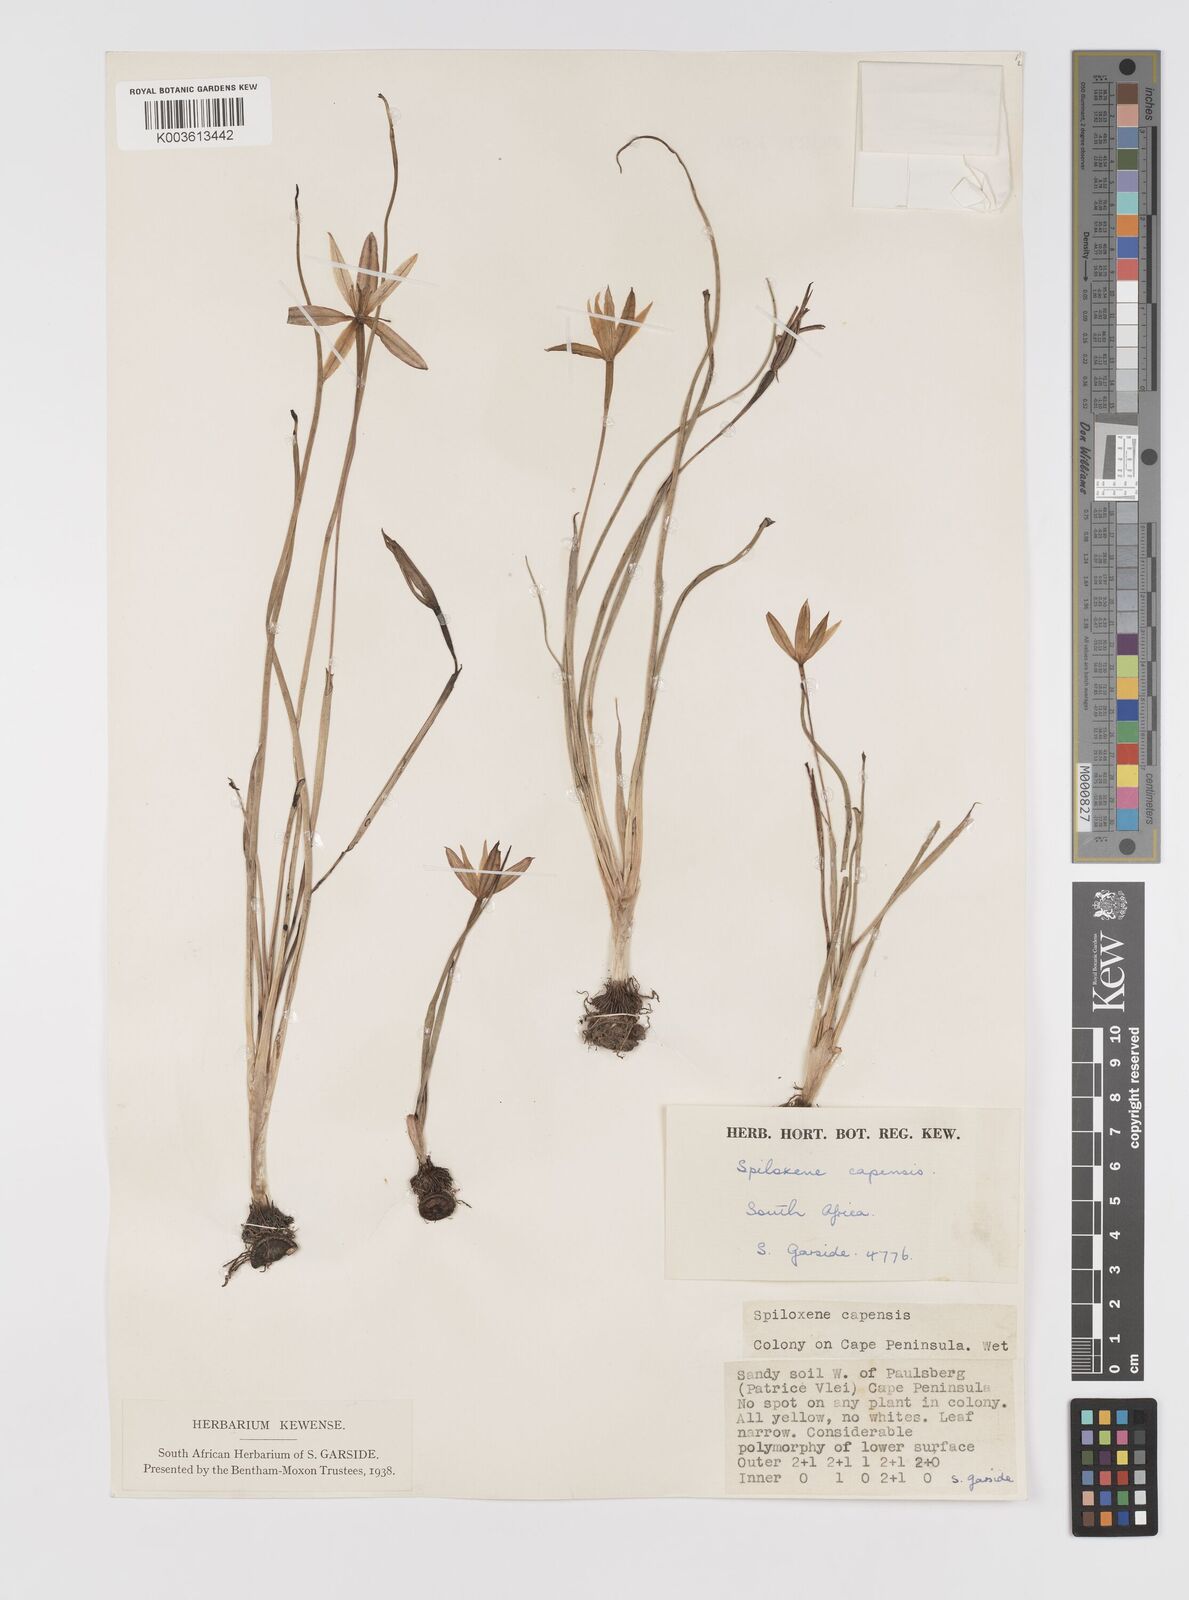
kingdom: Plantae
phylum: Tracheophyta
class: Liliopsida
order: Asparagales
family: Hypoxidaceae
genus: Pauridia
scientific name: Pauridia capensis
